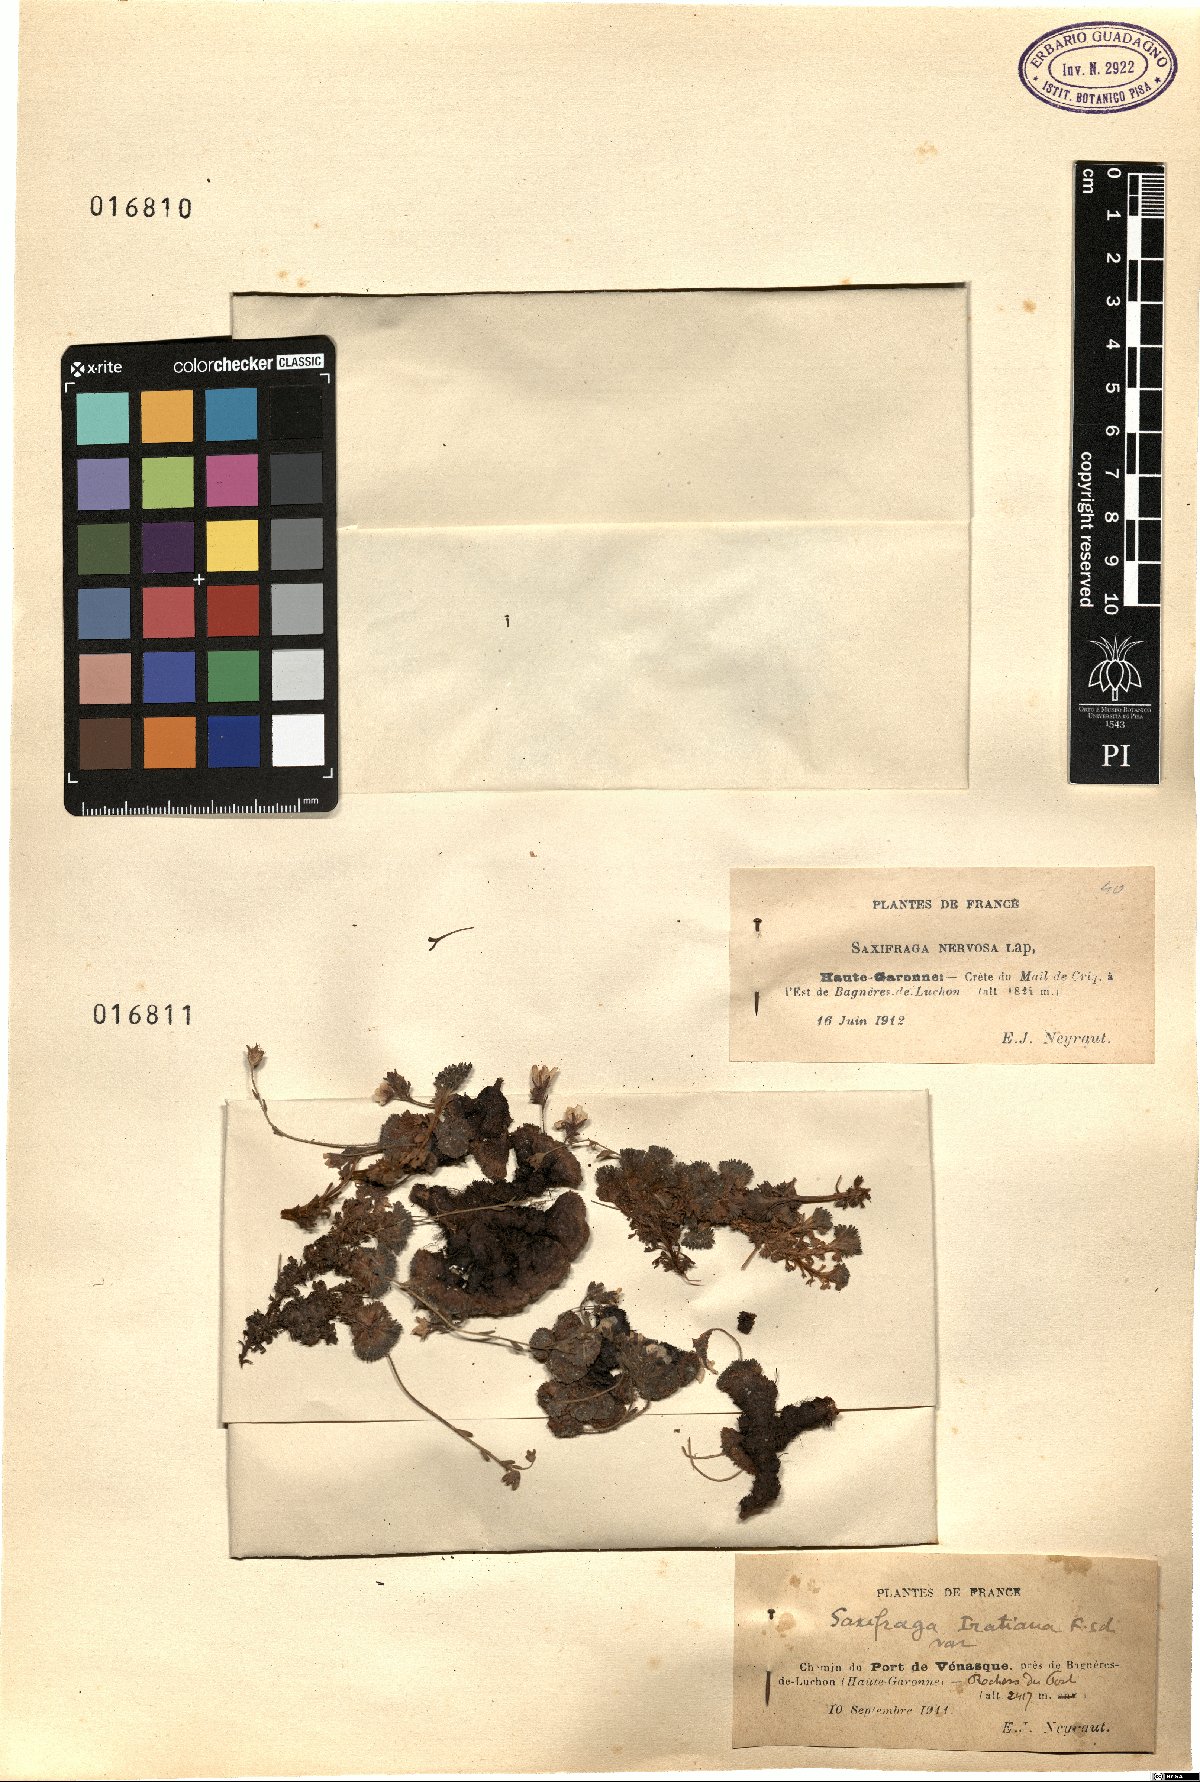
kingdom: Plantae
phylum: Tracheophyta
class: Magnoliopsida
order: Saxifragales
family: Saxifragaceae
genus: Saxifraga
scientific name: Saxifraga pubescens
